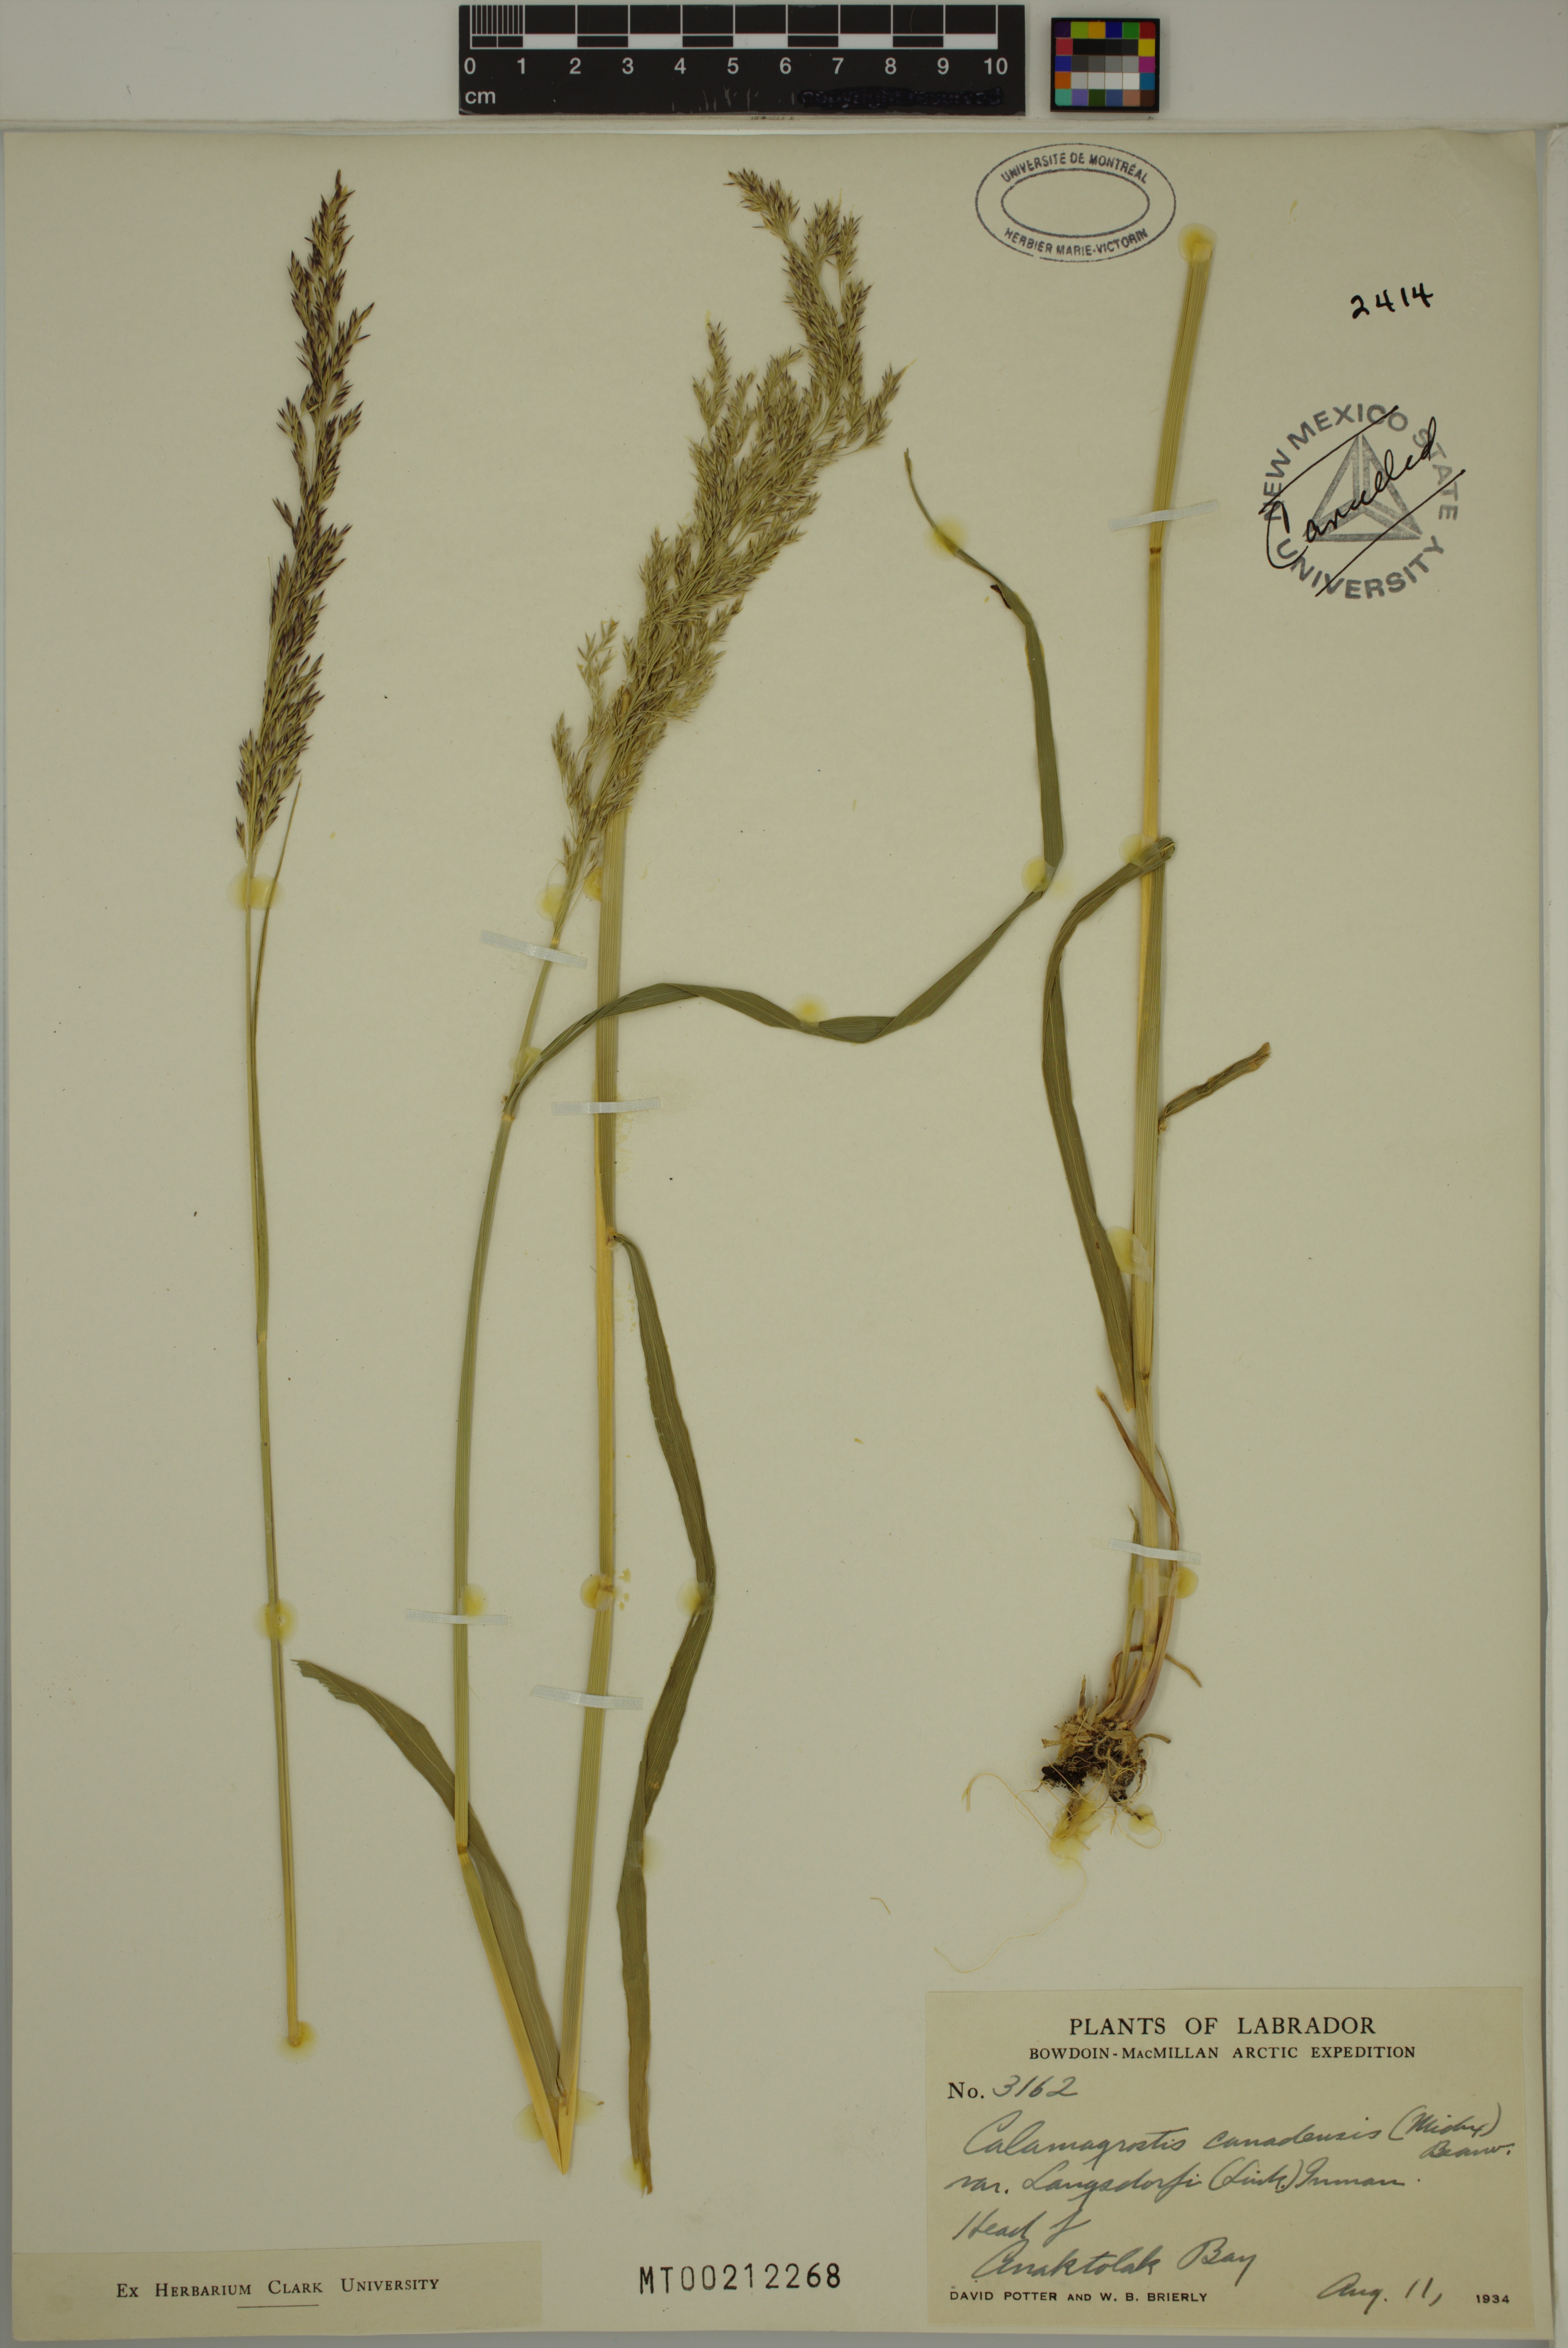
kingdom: Plantae
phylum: Tracheophyta
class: Liliopsida
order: Poales
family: Poaceae
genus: Calamagrostis
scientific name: Calamagrostis purpurea
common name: Scandinavian small-reed
